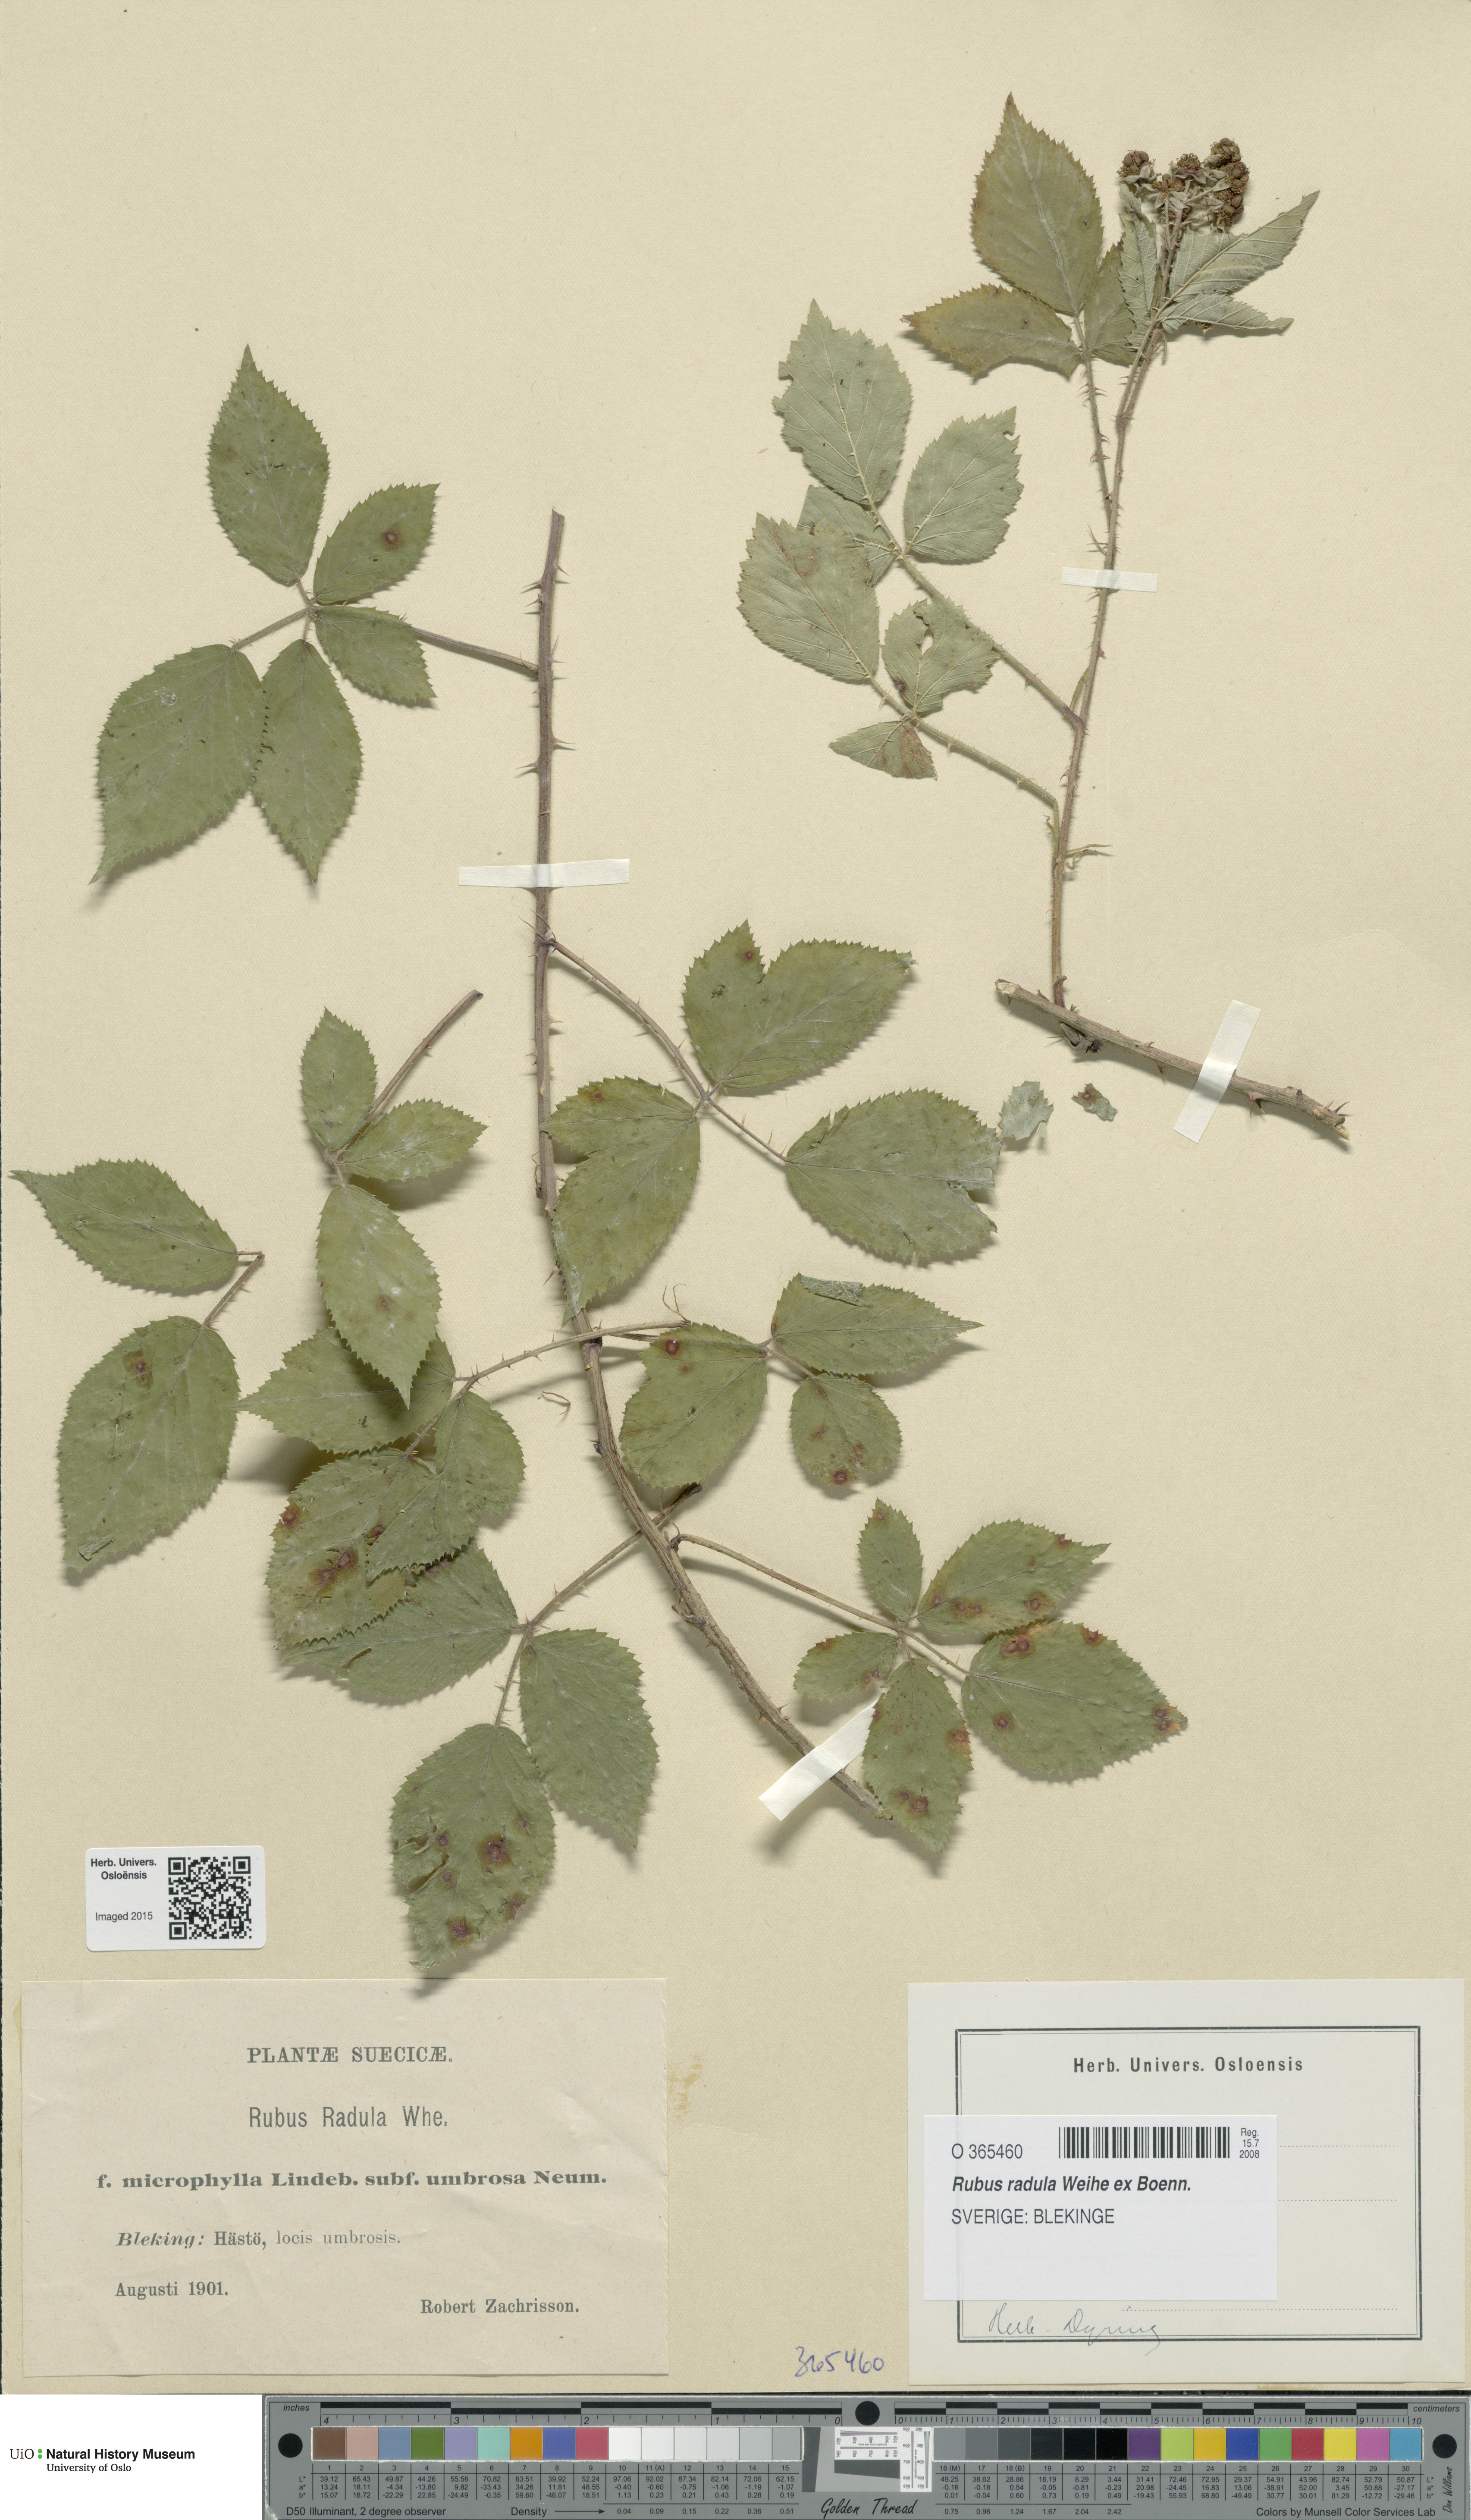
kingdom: Plantae
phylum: Tracheophyta
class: Magnoliopsida
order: Rosales
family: Rosaceae
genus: Rubus
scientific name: Rubus radula
